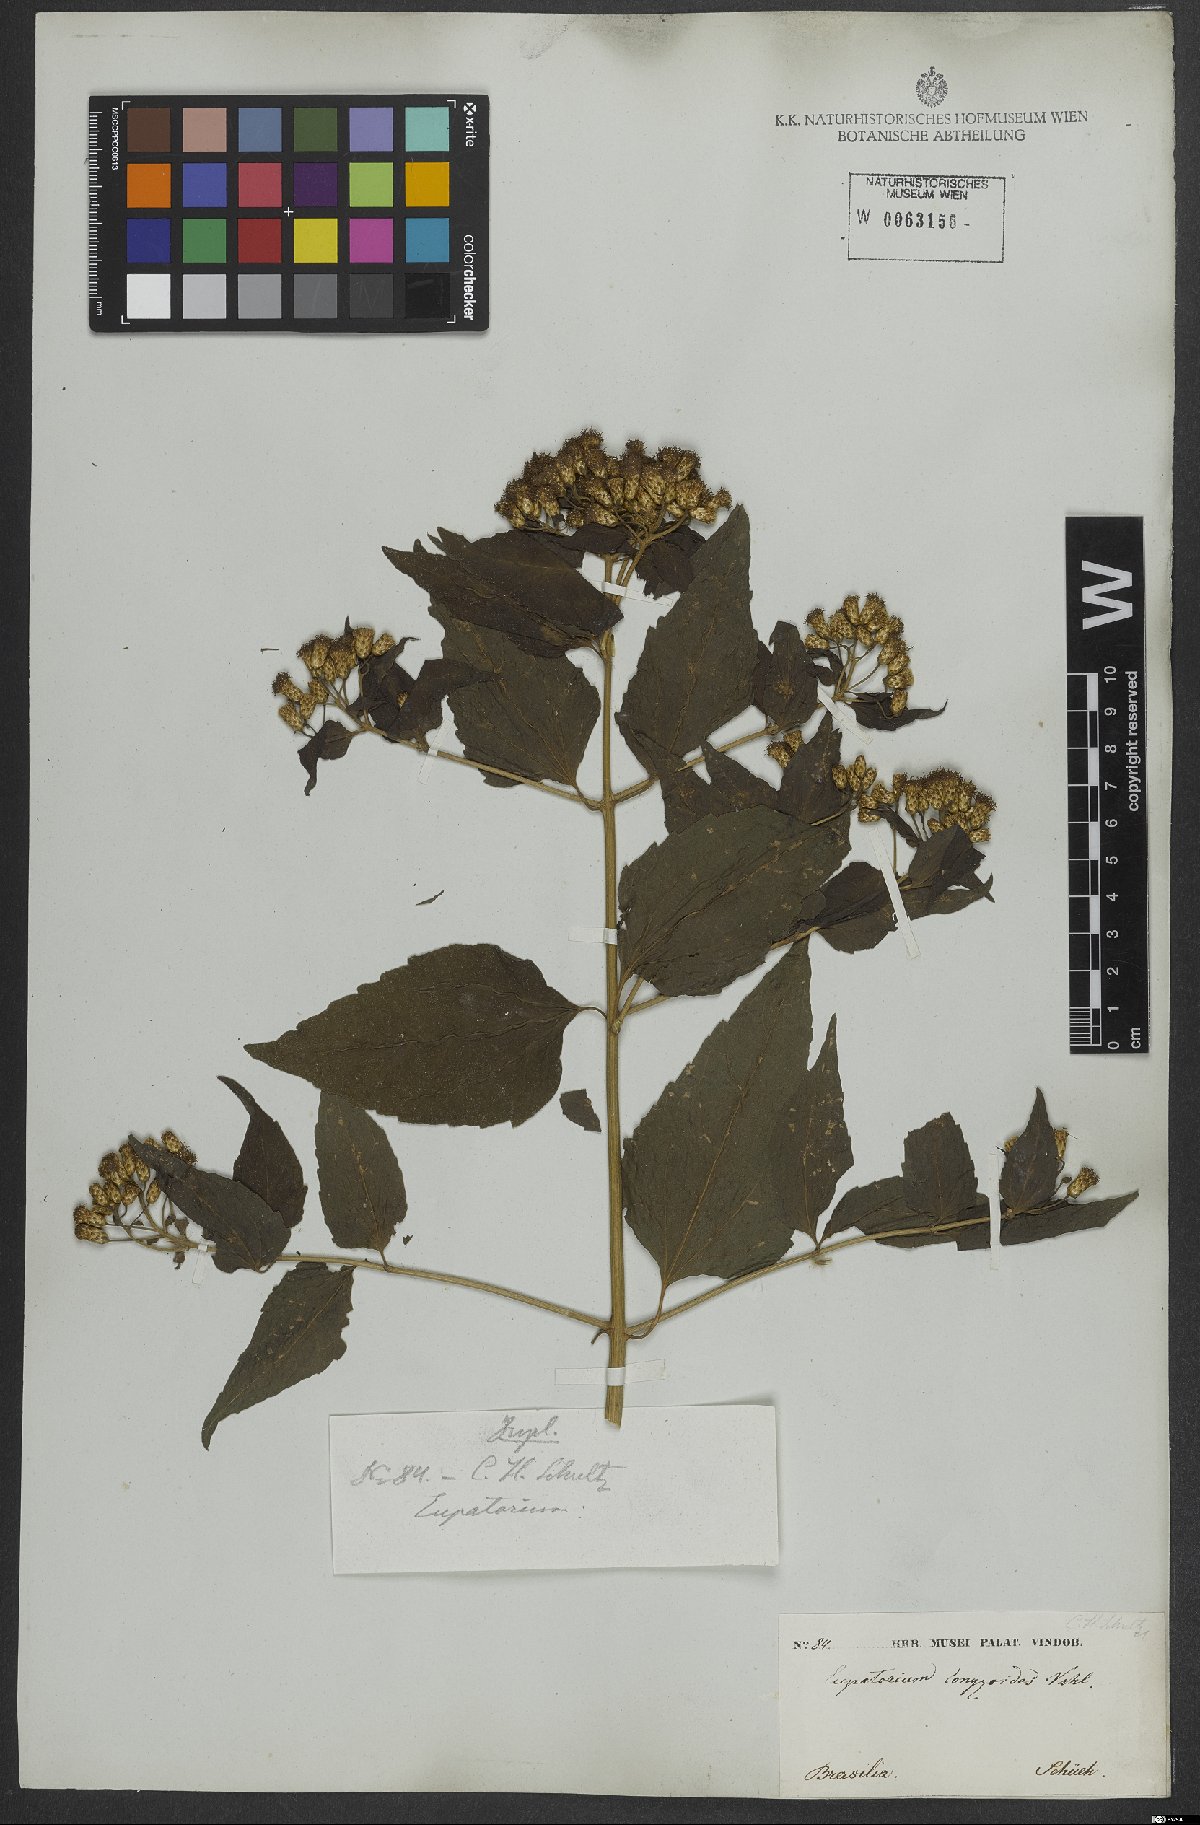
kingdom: Plantae
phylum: Tracheophyta
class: Magnoliopsida
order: Asterales
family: Asteraceae
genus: Chromolaena
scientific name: Chromolaena odorata
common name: Siamweed
